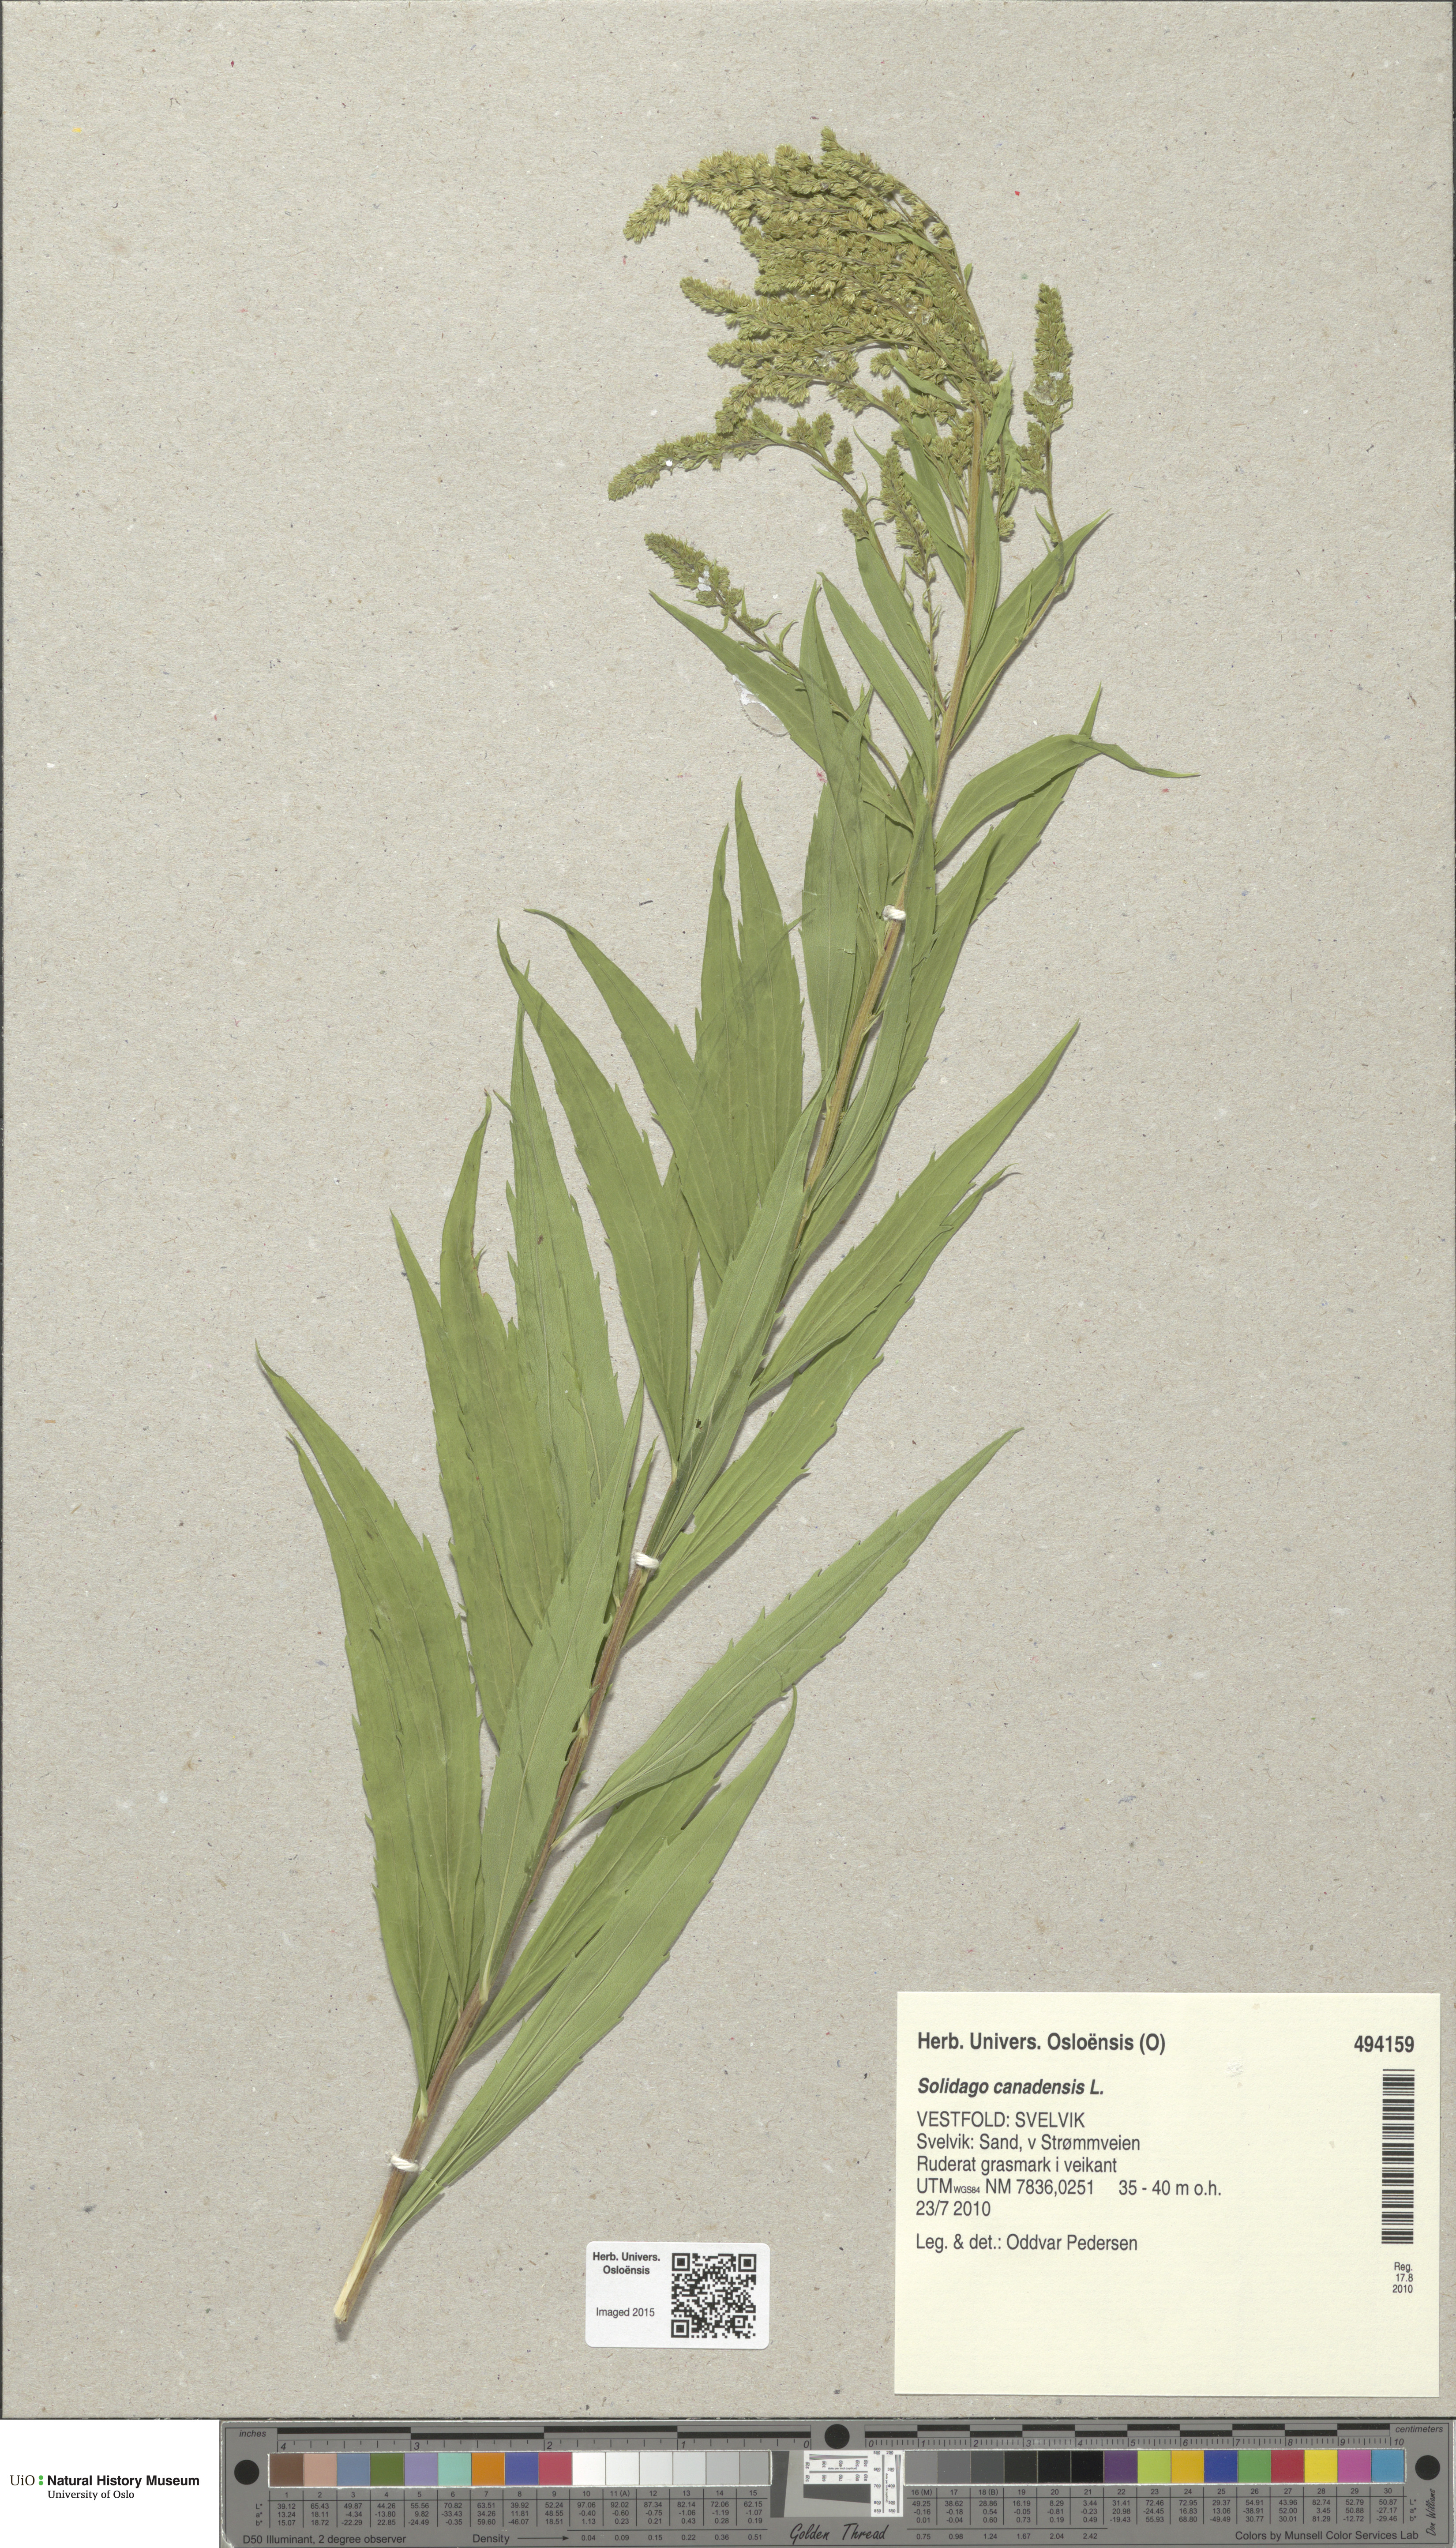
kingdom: Plantae
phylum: Tracheophyta
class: Magnoliopsida
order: Asterales
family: Asteraceae
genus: Solidago
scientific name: Solidago canadensis
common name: Canada goldenrod
